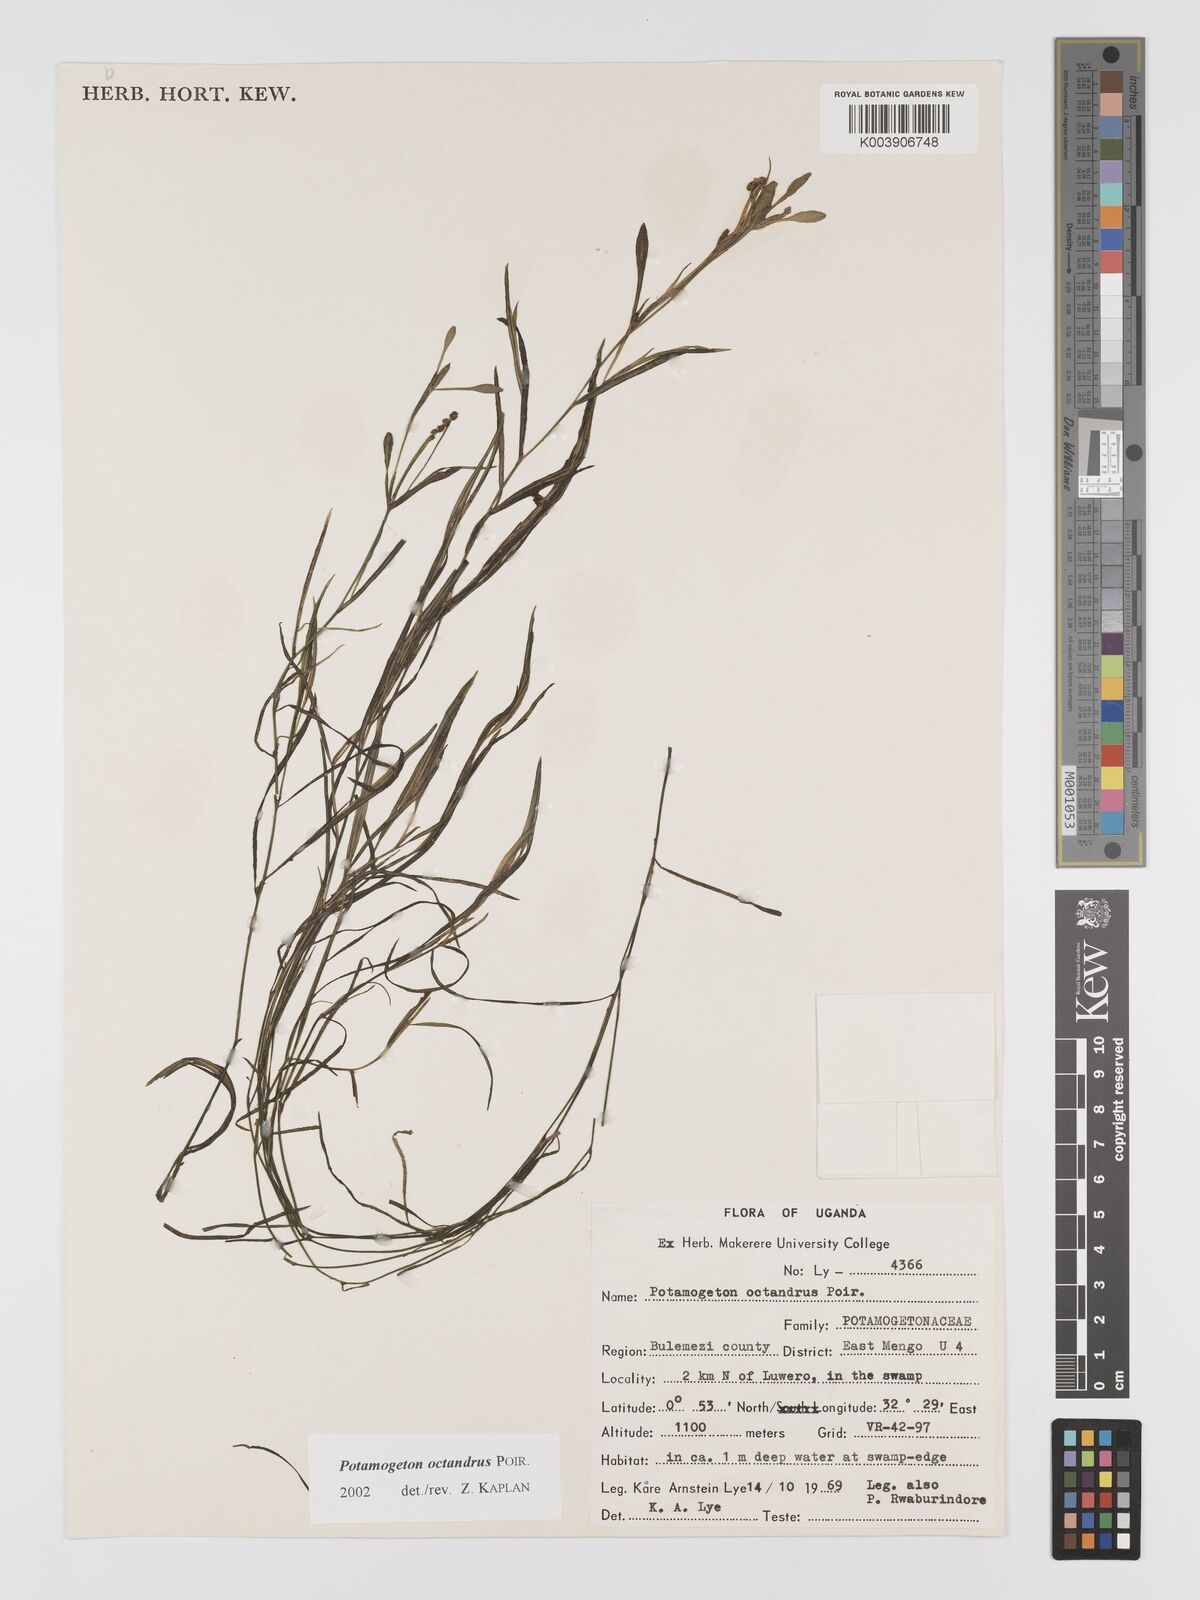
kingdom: Plantae
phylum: Tracheophyta
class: Liliopsida
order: Alismatales
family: Potamogetonaceae
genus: Potamogeton
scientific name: Potamogeton octandrus
